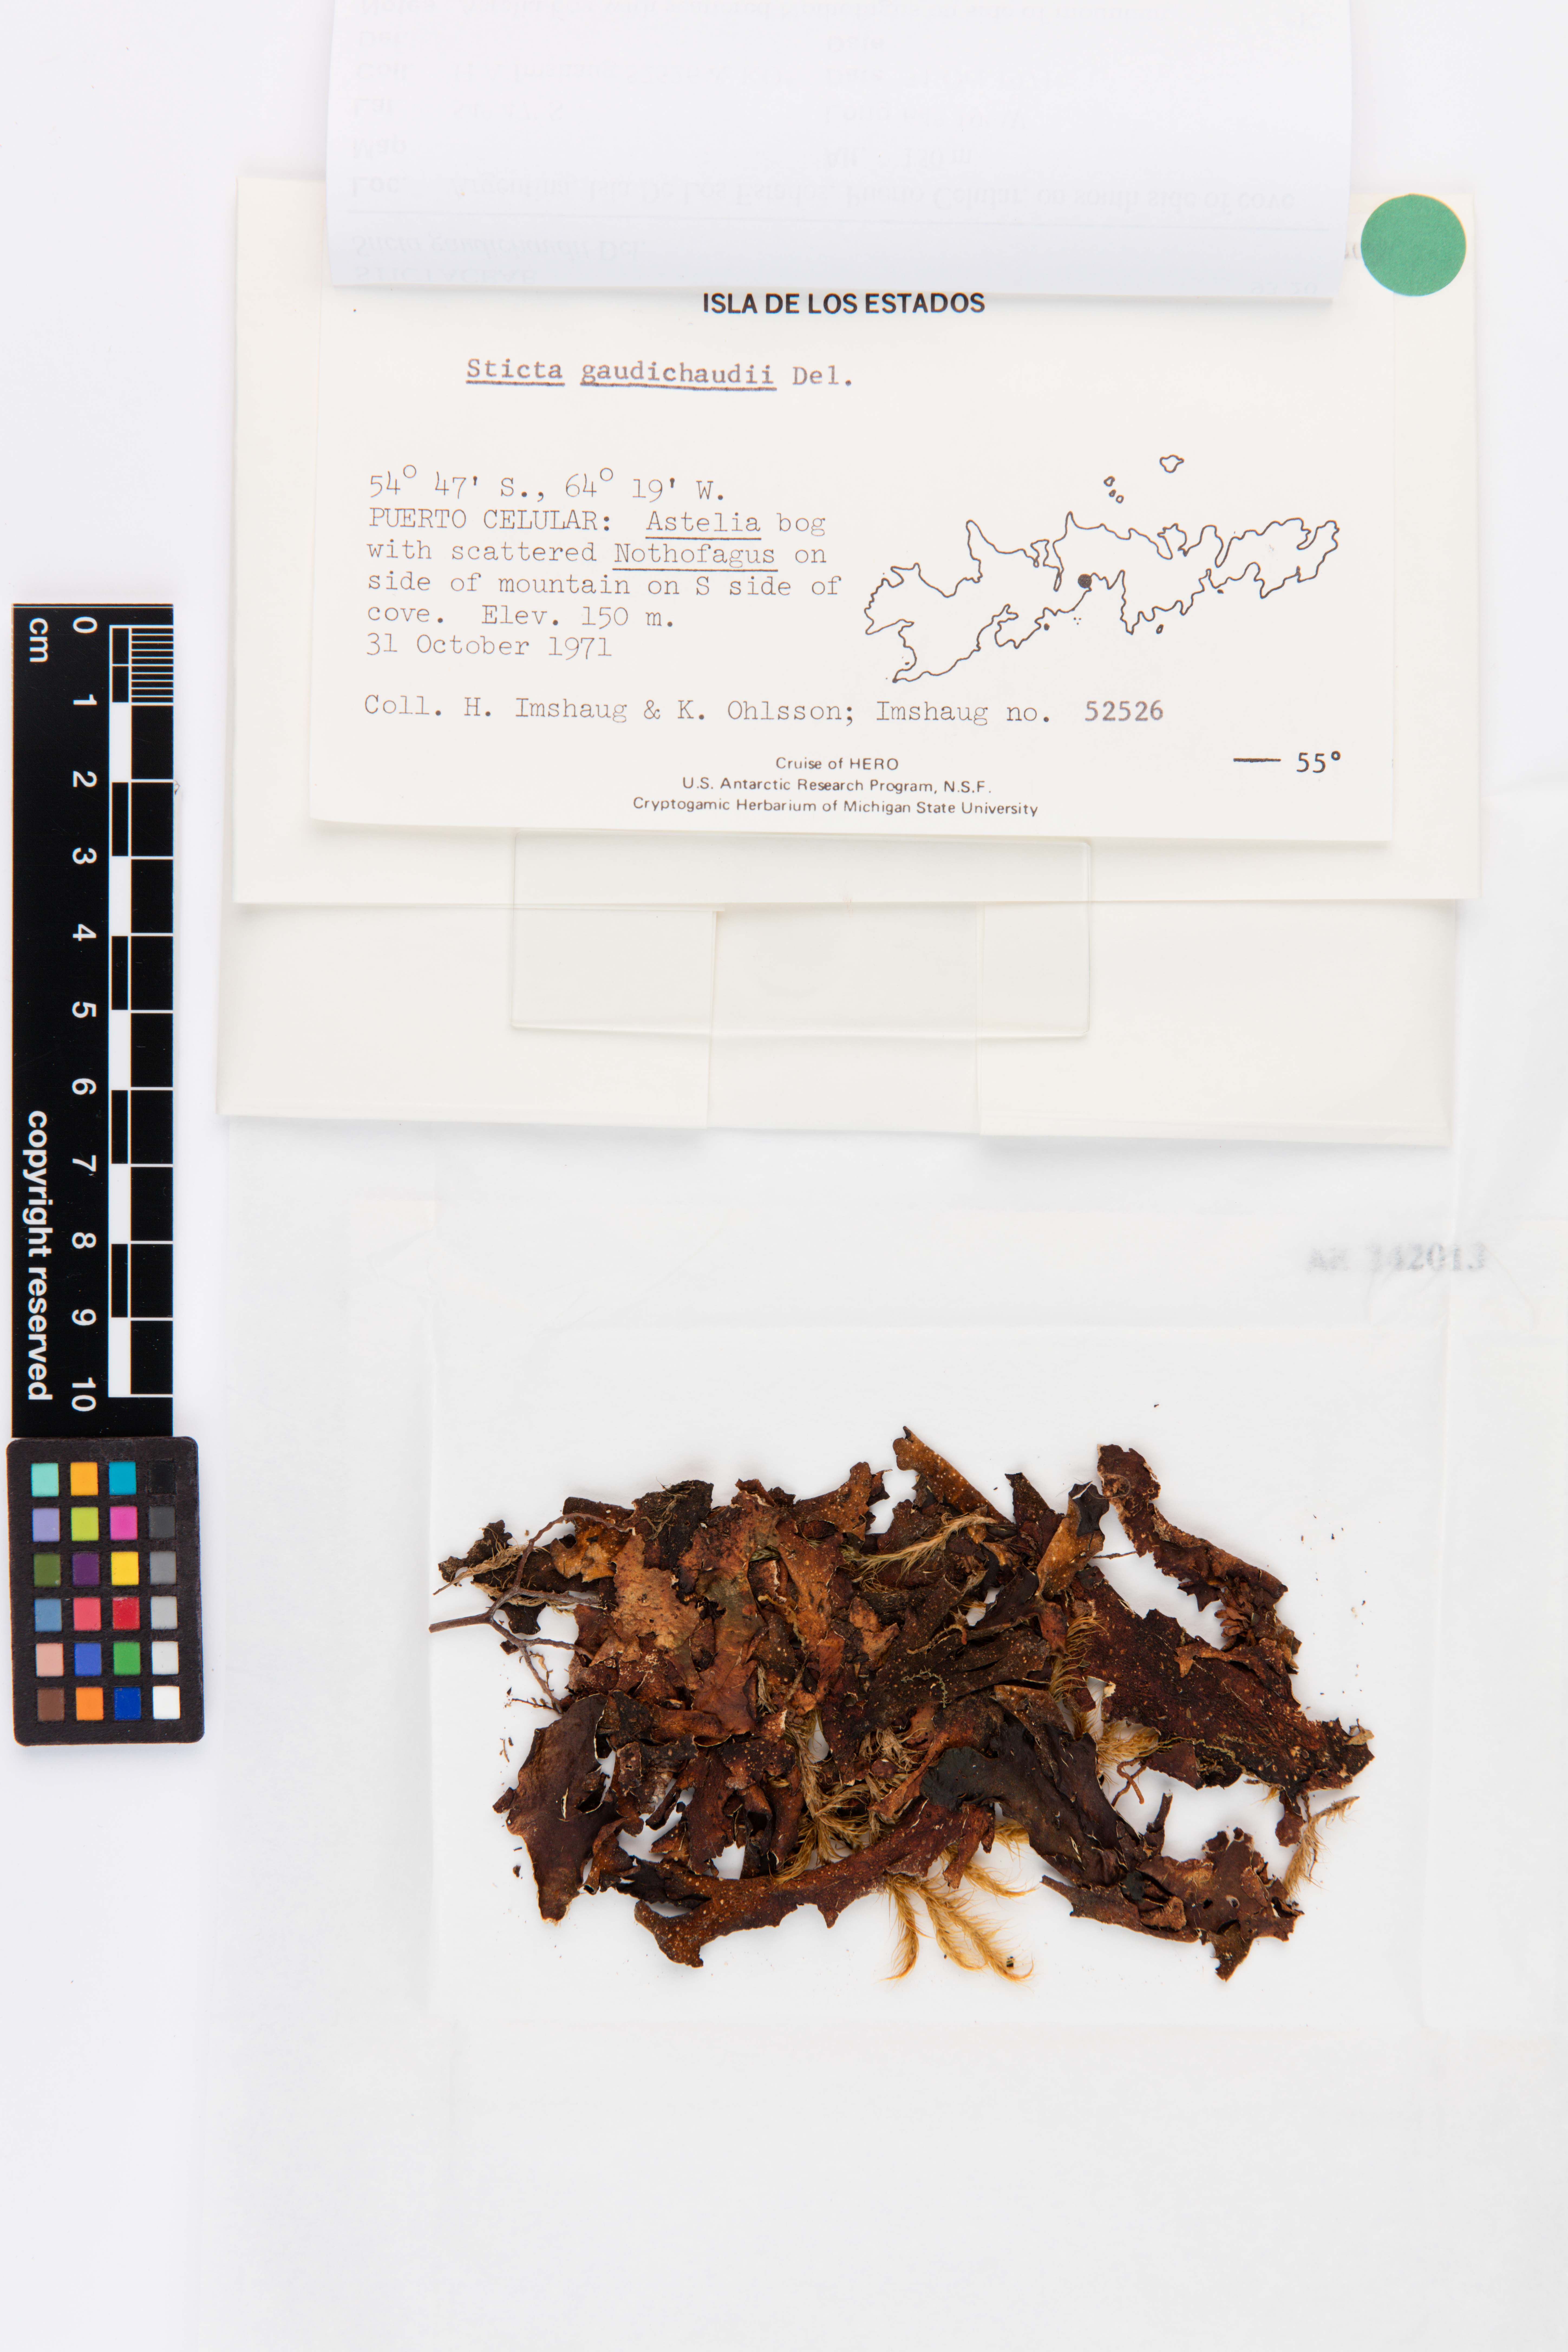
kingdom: Fungi
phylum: Ascomycota
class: Lecanoromycetes
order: Peltigerales
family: Lobariaceae
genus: Sticta
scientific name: Sticta gaudichaudii
